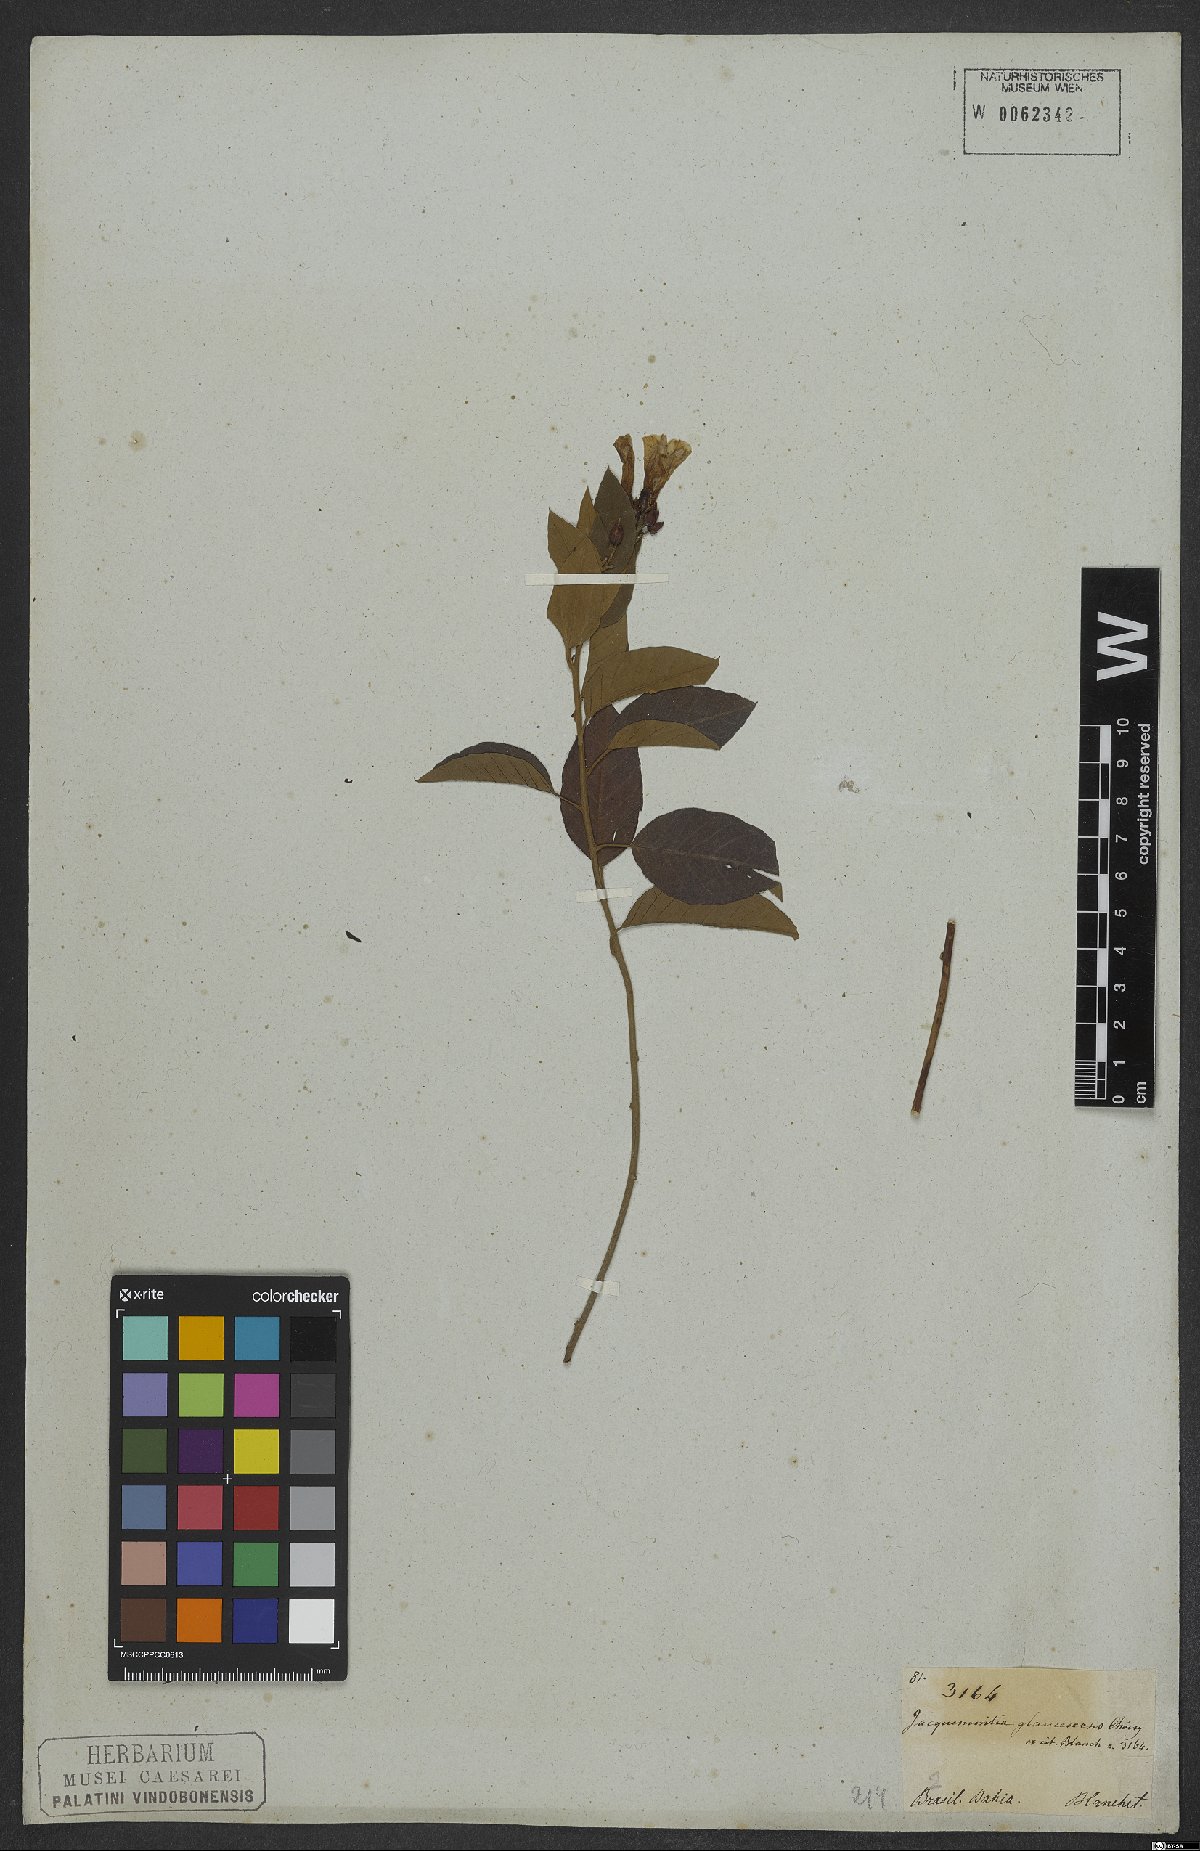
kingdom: Plantae
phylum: Tracheophyta
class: Magnoliopsida
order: Solanales
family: Convolvulaceae
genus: Jacquemontia
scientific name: Jacquemontia glaucescens
